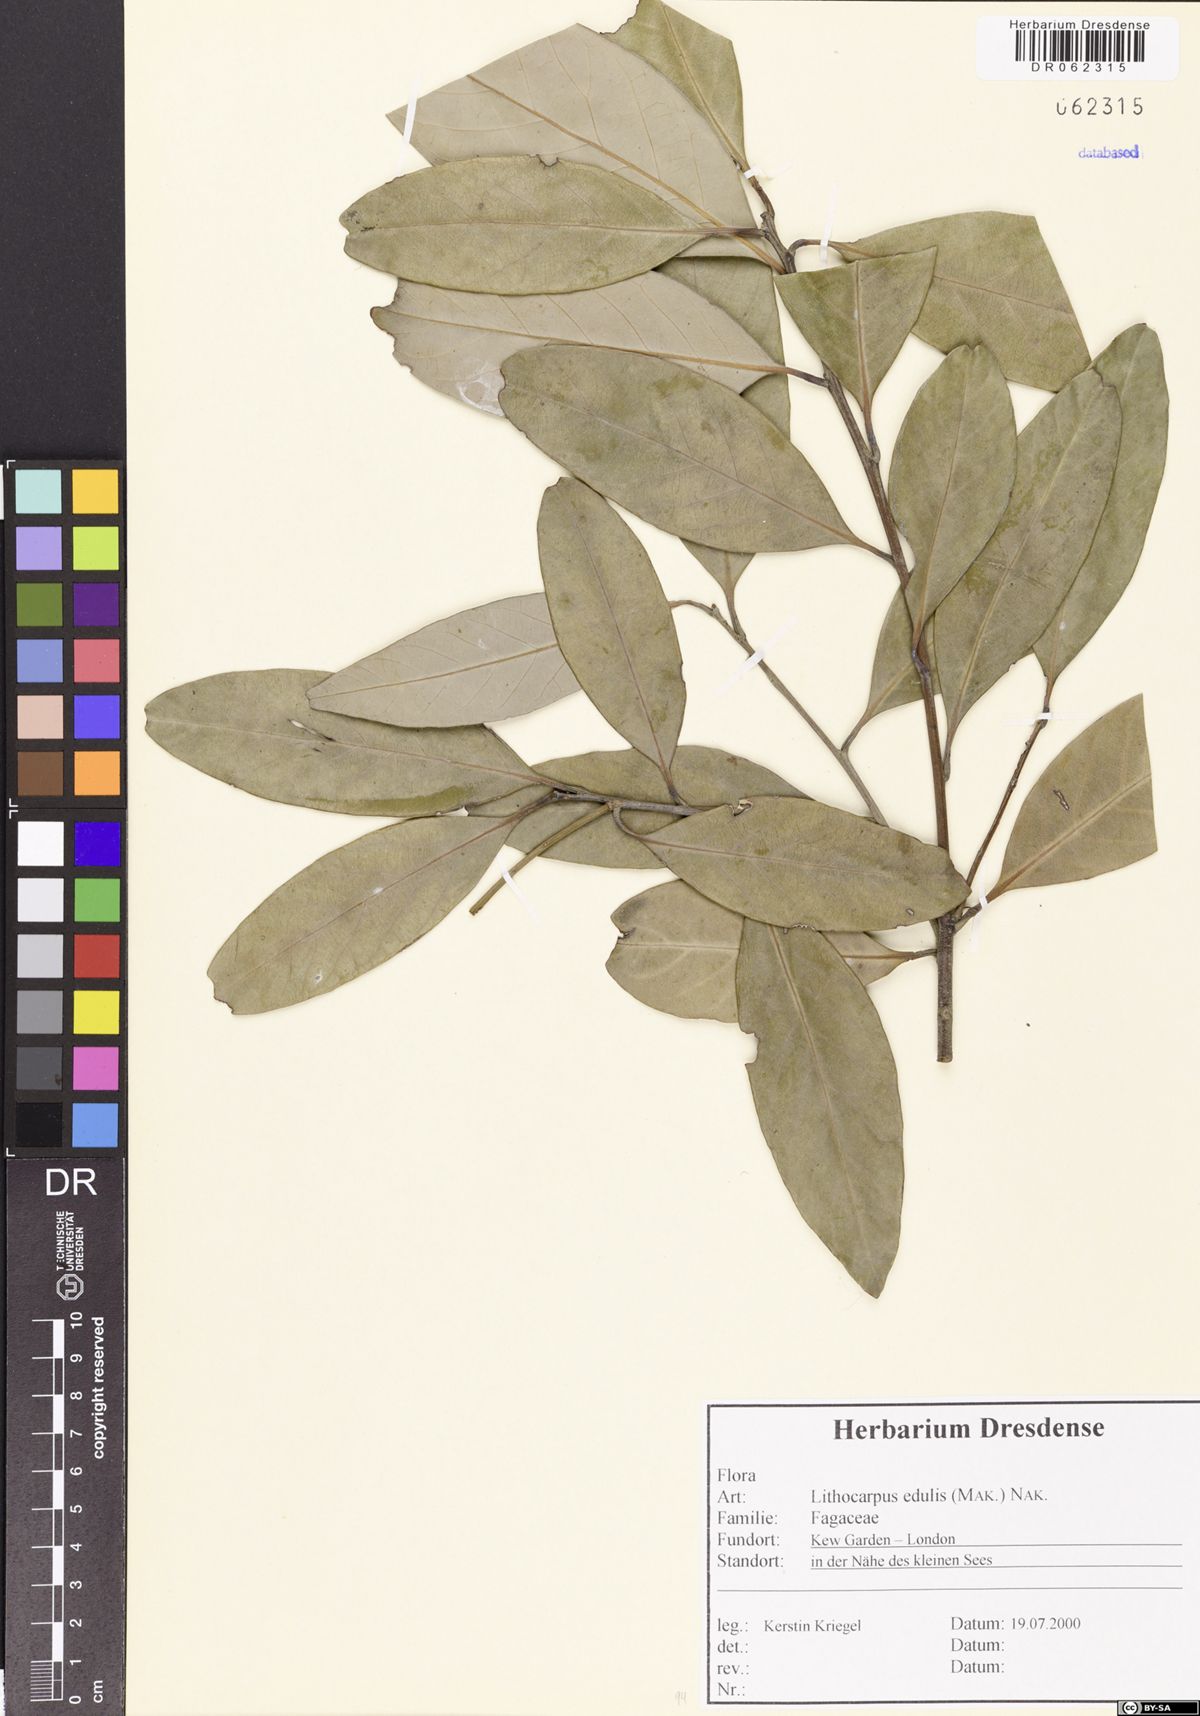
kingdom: Plantae
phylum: Tracheophyta
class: Magnoliopsida
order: Fagales
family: Fagaceae
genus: Lithocarpus
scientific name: Lithocarpus edulis
